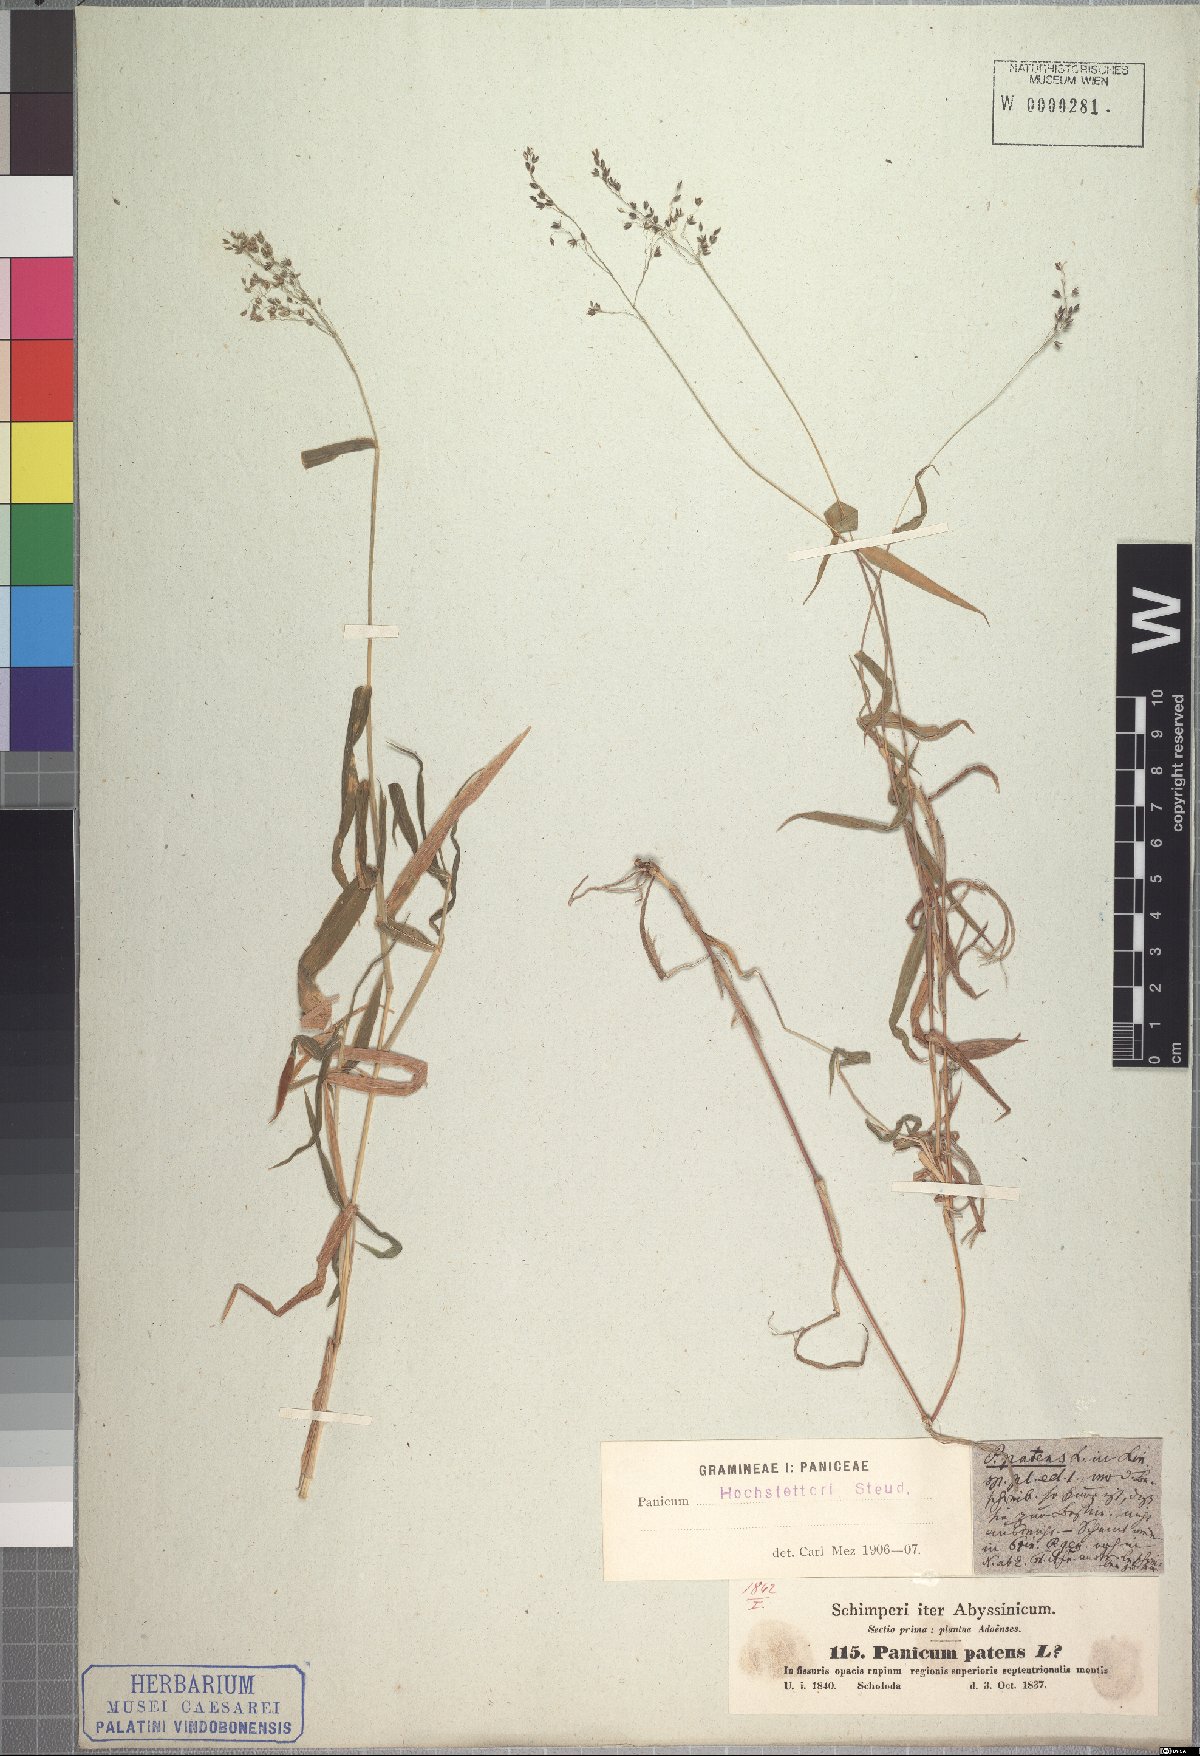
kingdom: Plantae
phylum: Tracheophyta
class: Liliopsida
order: Poales
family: Poaceae
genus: Panicum
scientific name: Panicum hochstetteri
